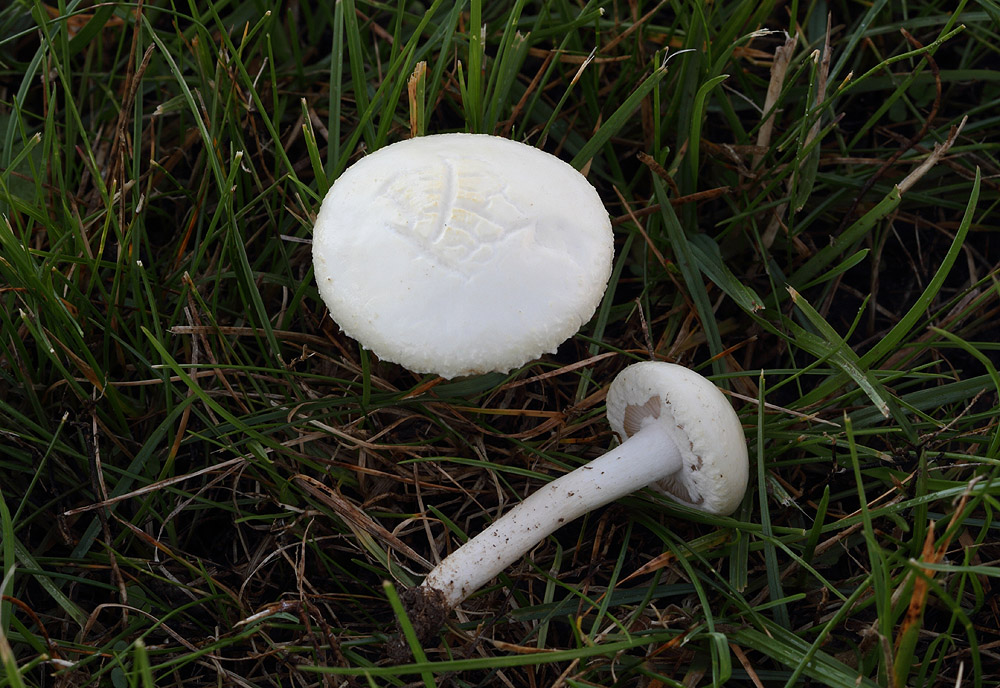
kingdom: Fungi
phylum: Basidiomycota
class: Agaricomycetes
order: Agaricales
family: Strophariaceae
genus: Agrocybe
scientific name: Agrocybe dura
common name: fastkødet agerhat
